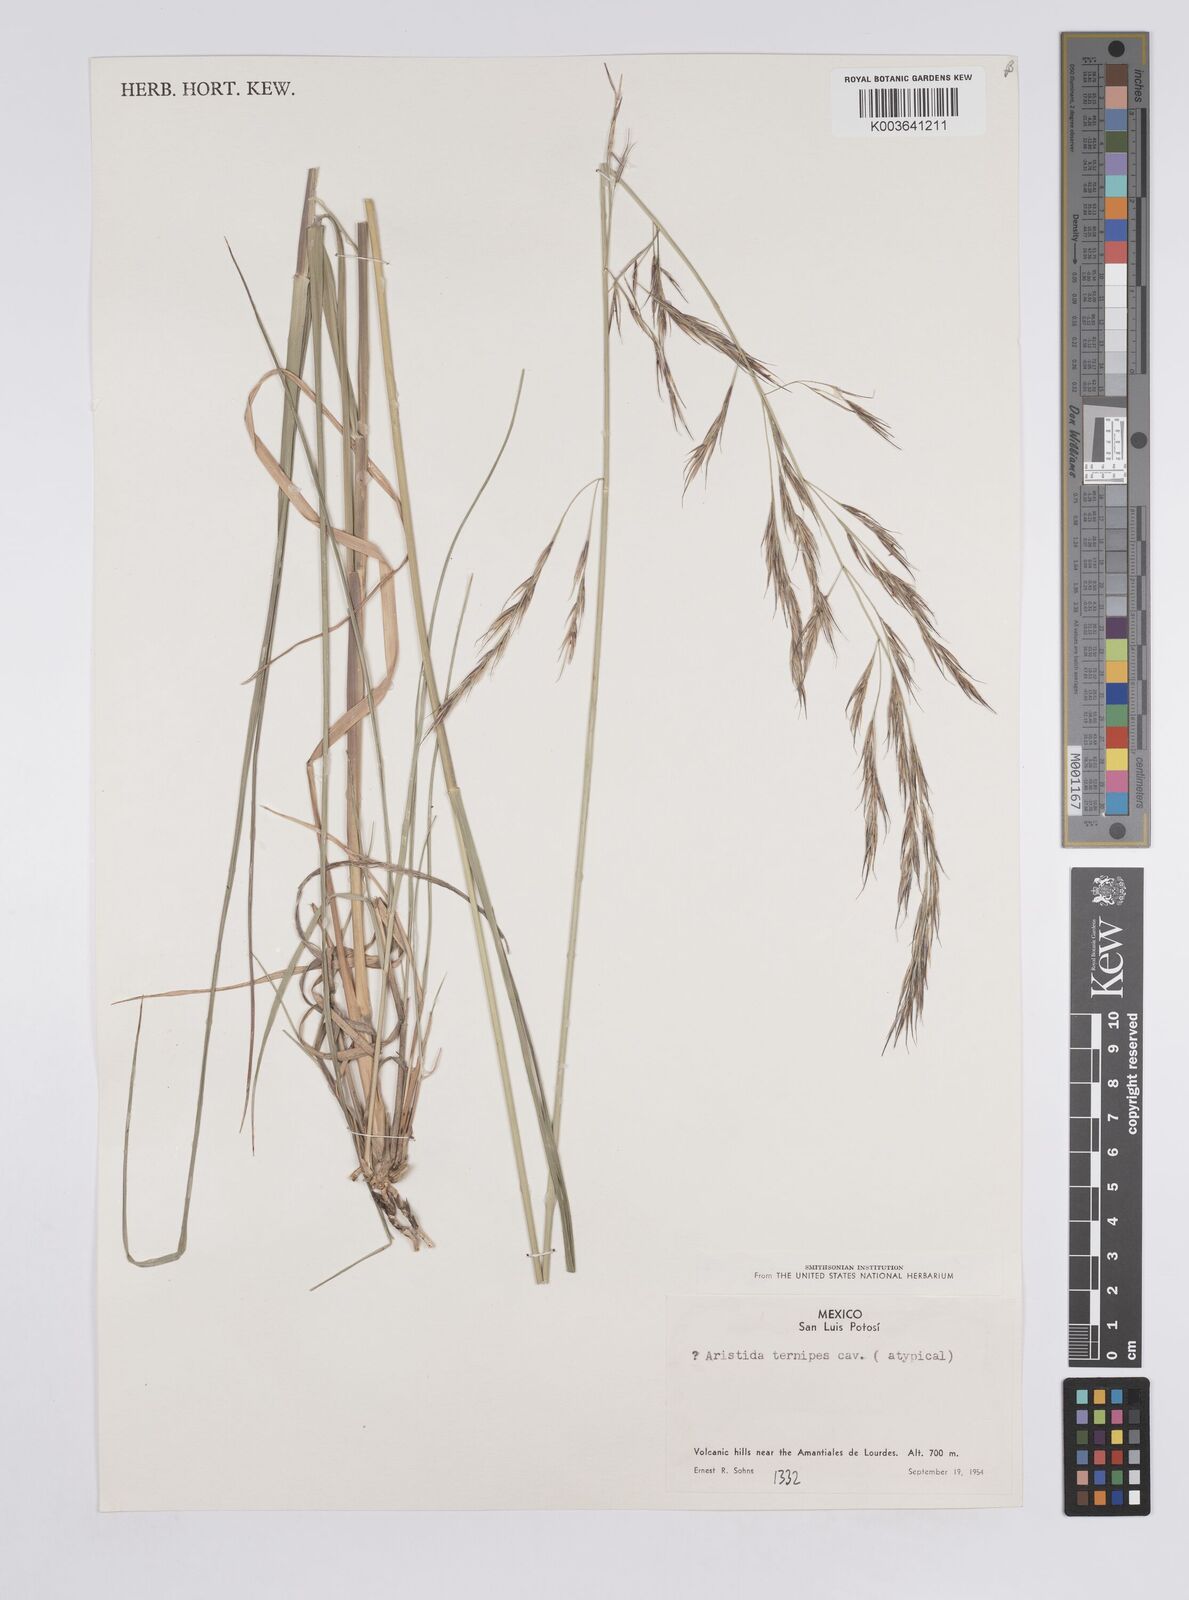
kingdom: Plantae
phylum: Tracheophyta
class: Liliopsida
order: Poales
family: Poaceae
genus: Aristida
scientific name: Aristida
